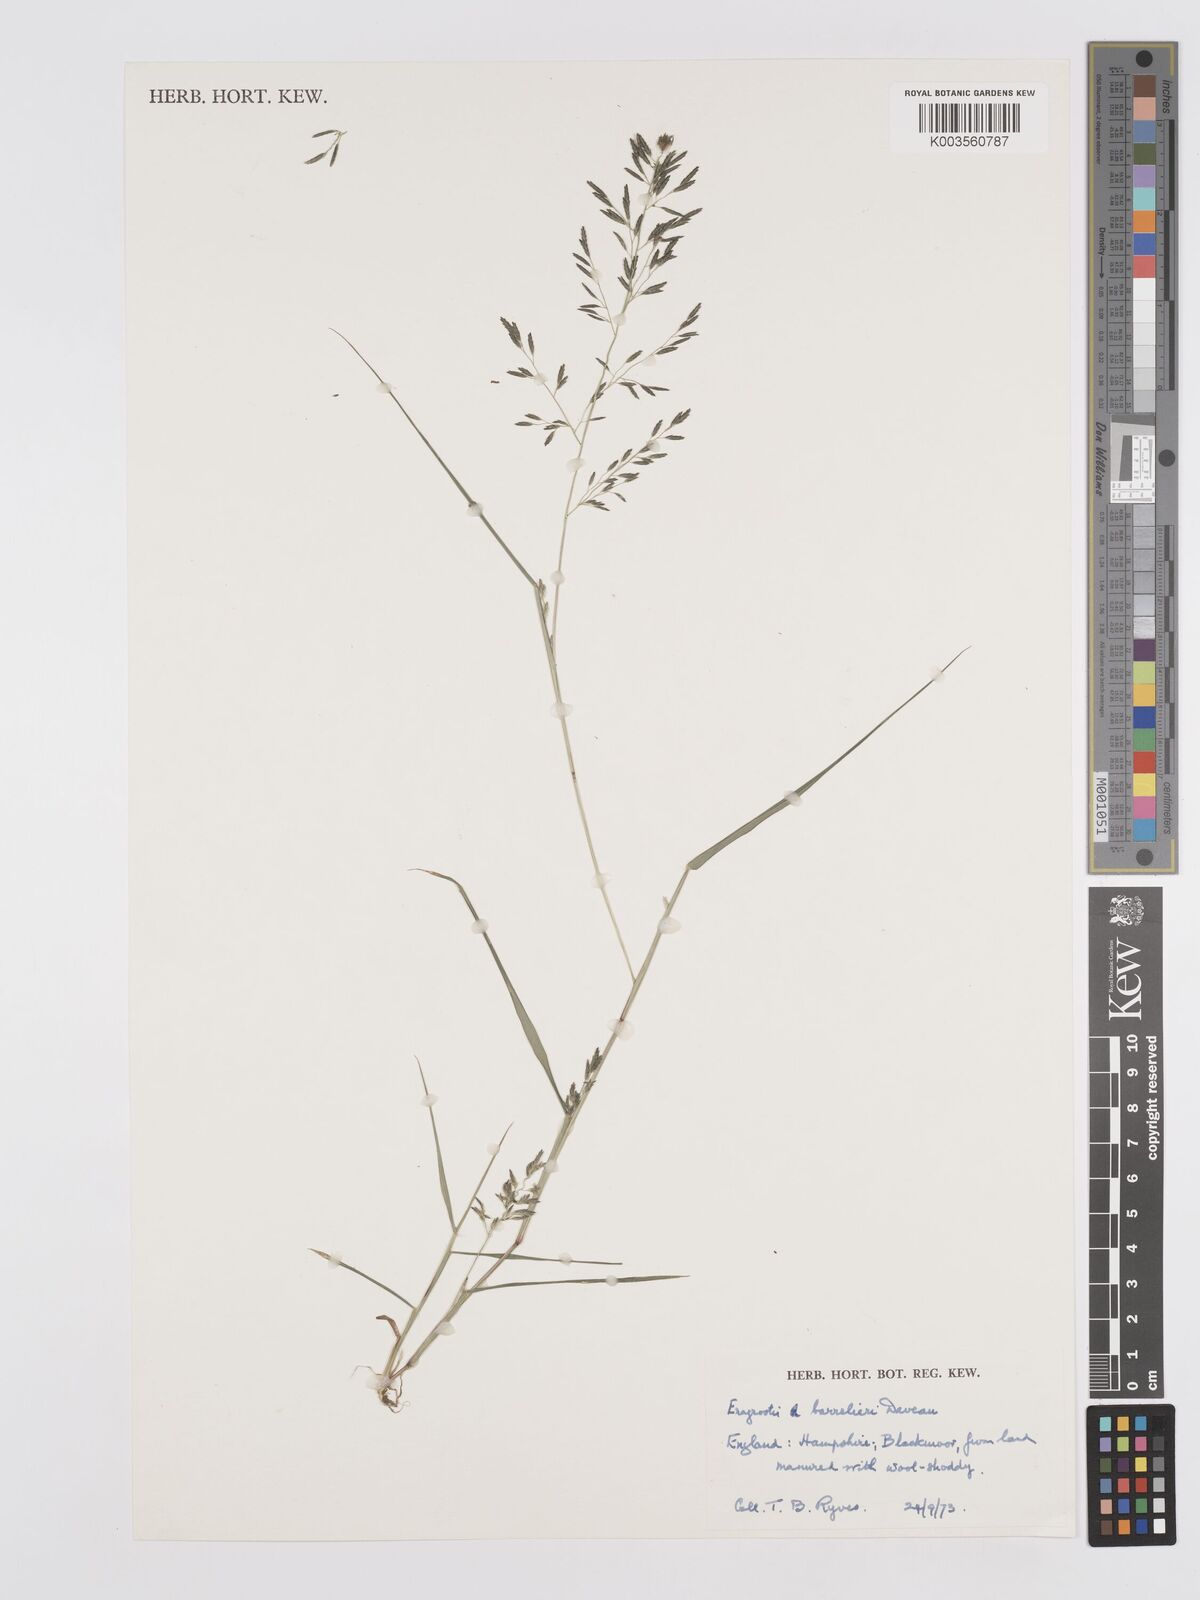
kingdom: Plantae
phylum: Tracheophyta
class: Liliopsida
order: Poales
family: Poaceae
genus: Eragrostis
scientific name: Eragrostis barrelieri
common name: Mediterranean lovegrass
